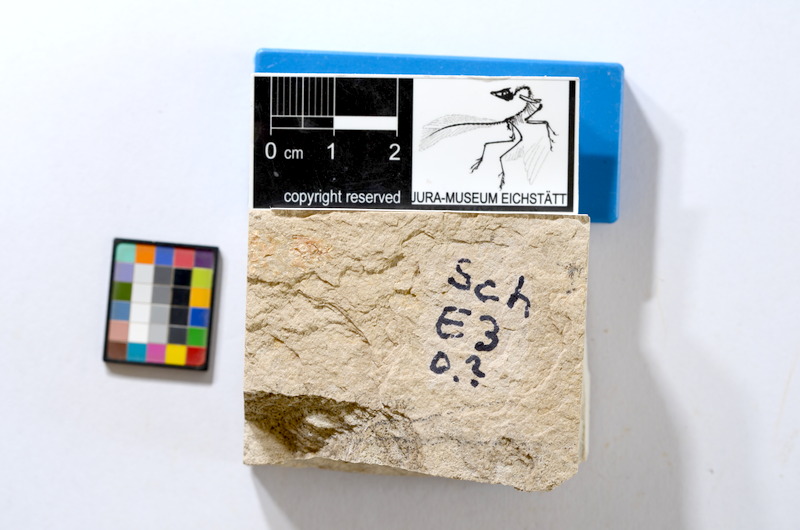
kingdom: Animalia
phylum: Chordata
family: Ascalaboidae
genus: Tharsis
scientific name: Tharsis dubius
